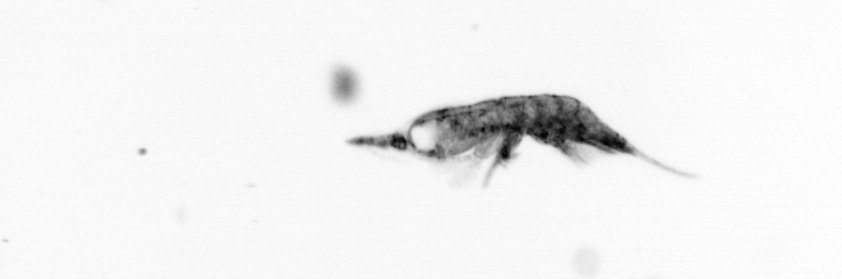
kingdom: Animalia
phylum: Arthropoda
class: Copepoda
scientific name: Copepoda
